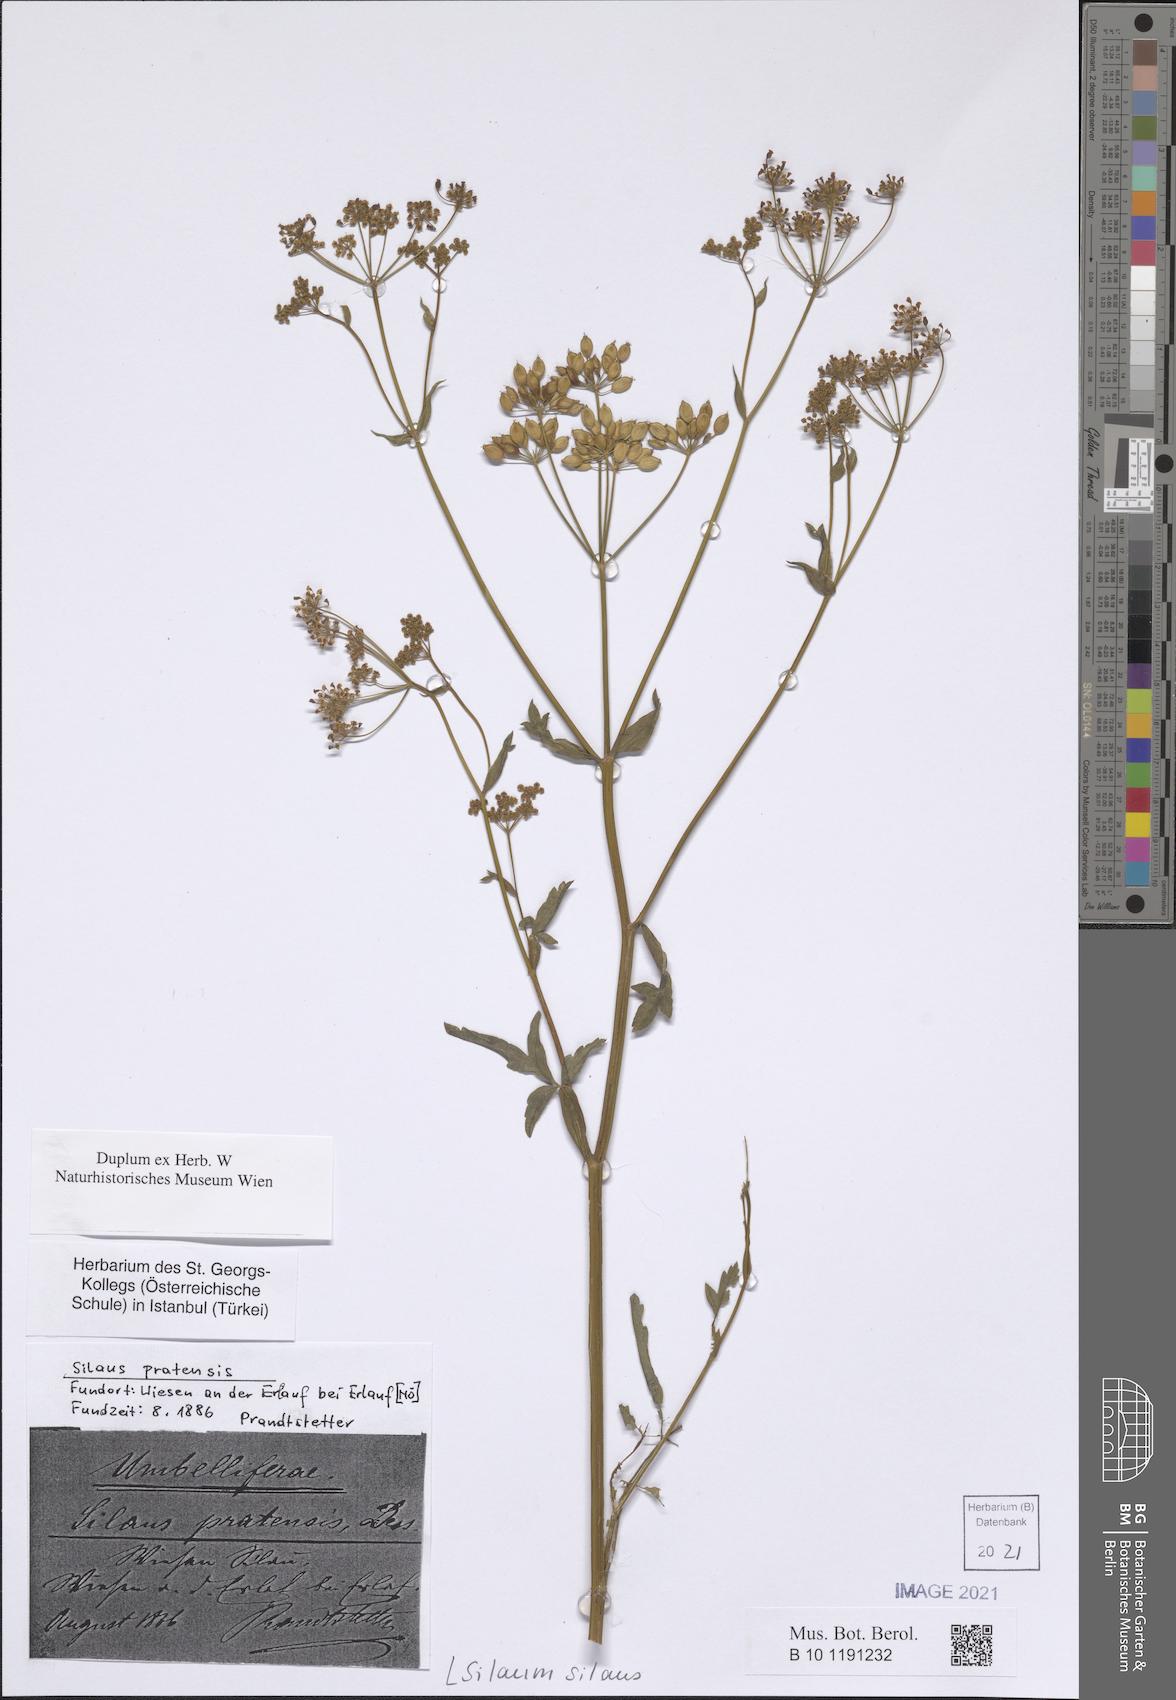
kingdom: Plantae
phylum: Tracheophyta
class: Magnoliopsida
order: Apiales
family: Apiaceae
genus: Silaum
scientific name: Silaum silaus
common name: Pepper-saxifrage
